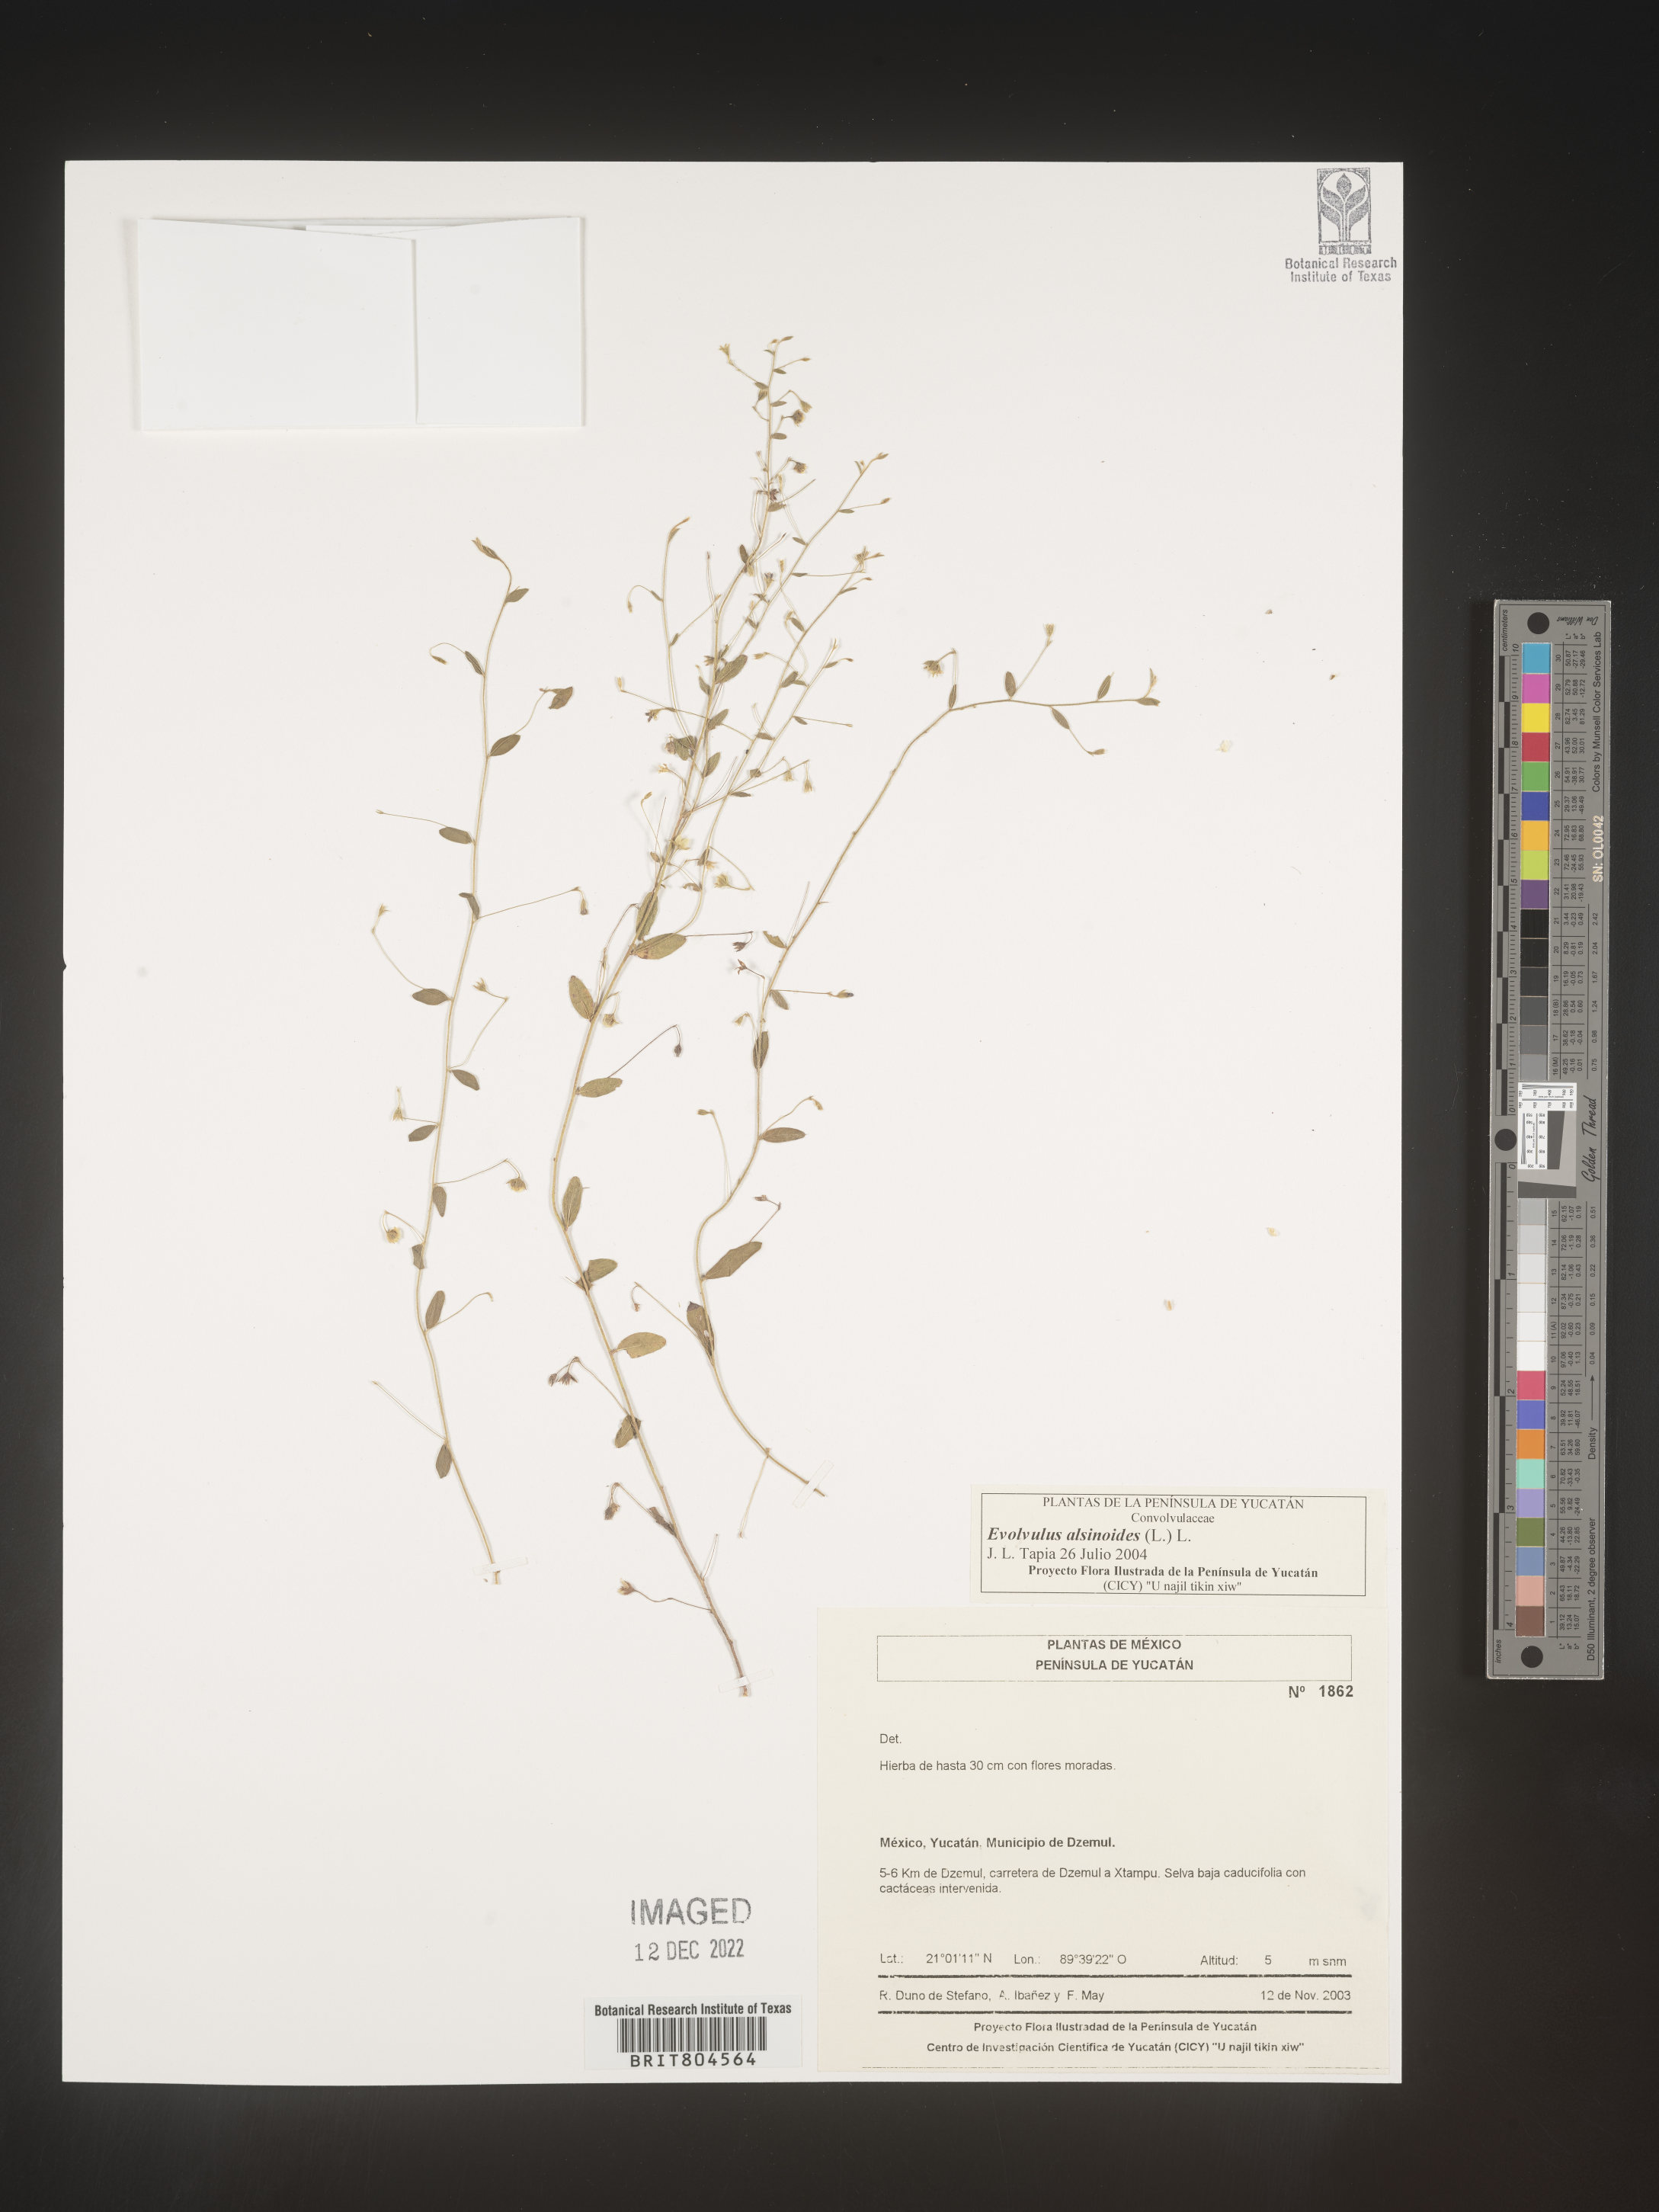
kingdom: Plantae
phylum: Tracheophyta
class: Magnoliopsida
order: Solanales
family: Convolvulaceae
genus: Evolvulus
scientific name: Evolvulus
